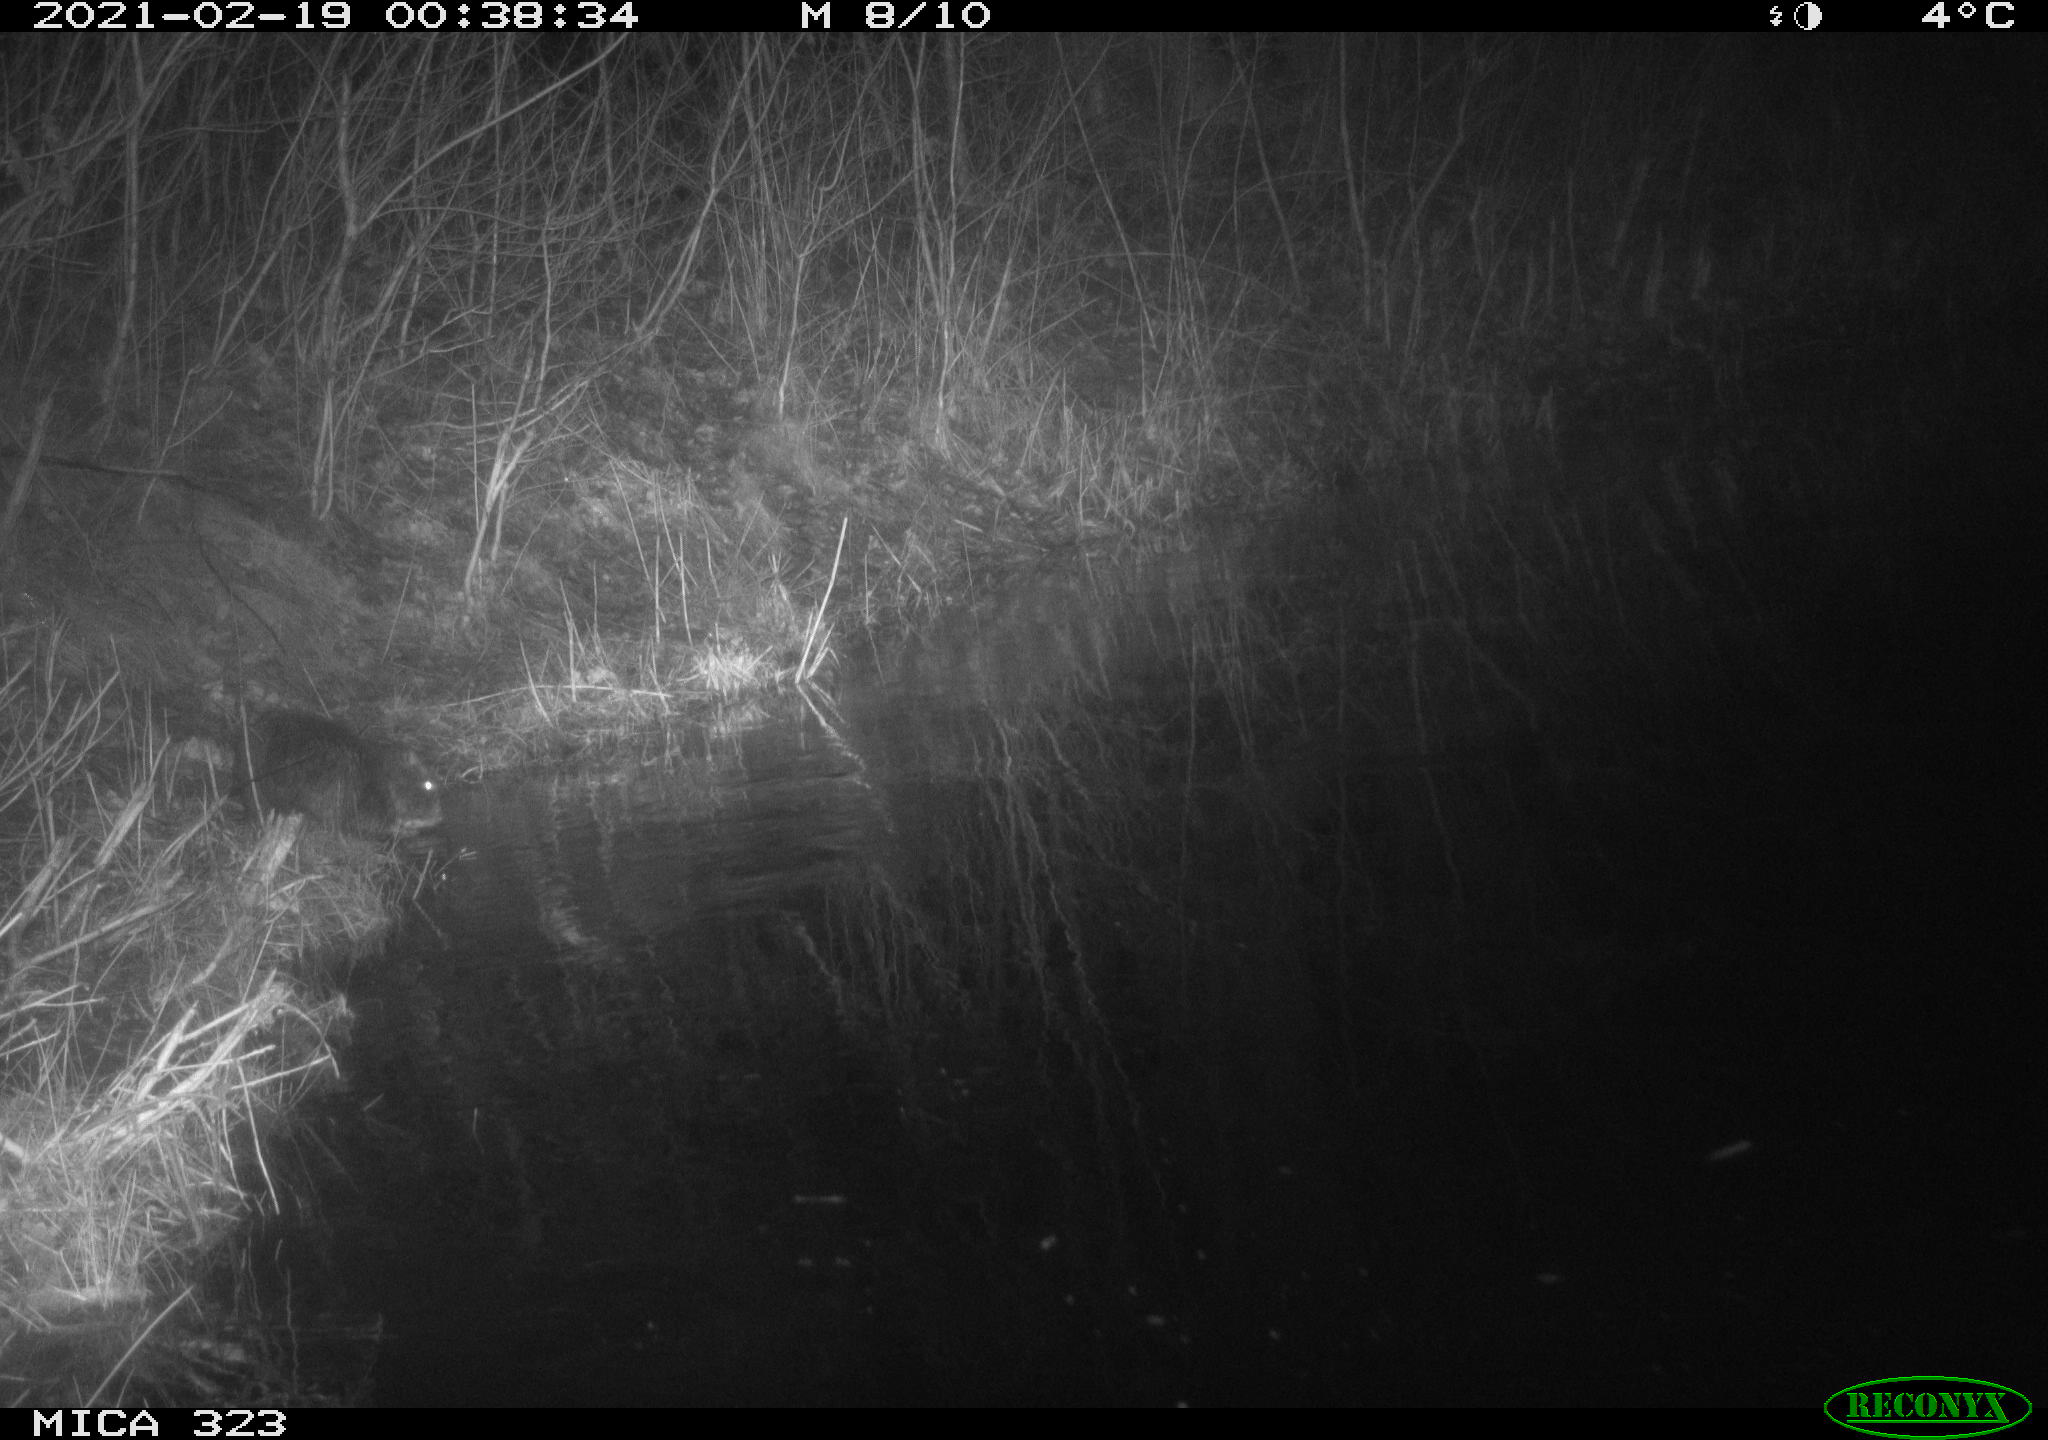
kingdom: Animalia
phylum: Chordata
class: Mammalia
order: Rodentia
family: Myocastoridae
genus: Myocastor
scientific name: Myocastor coypus
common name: Coypu
